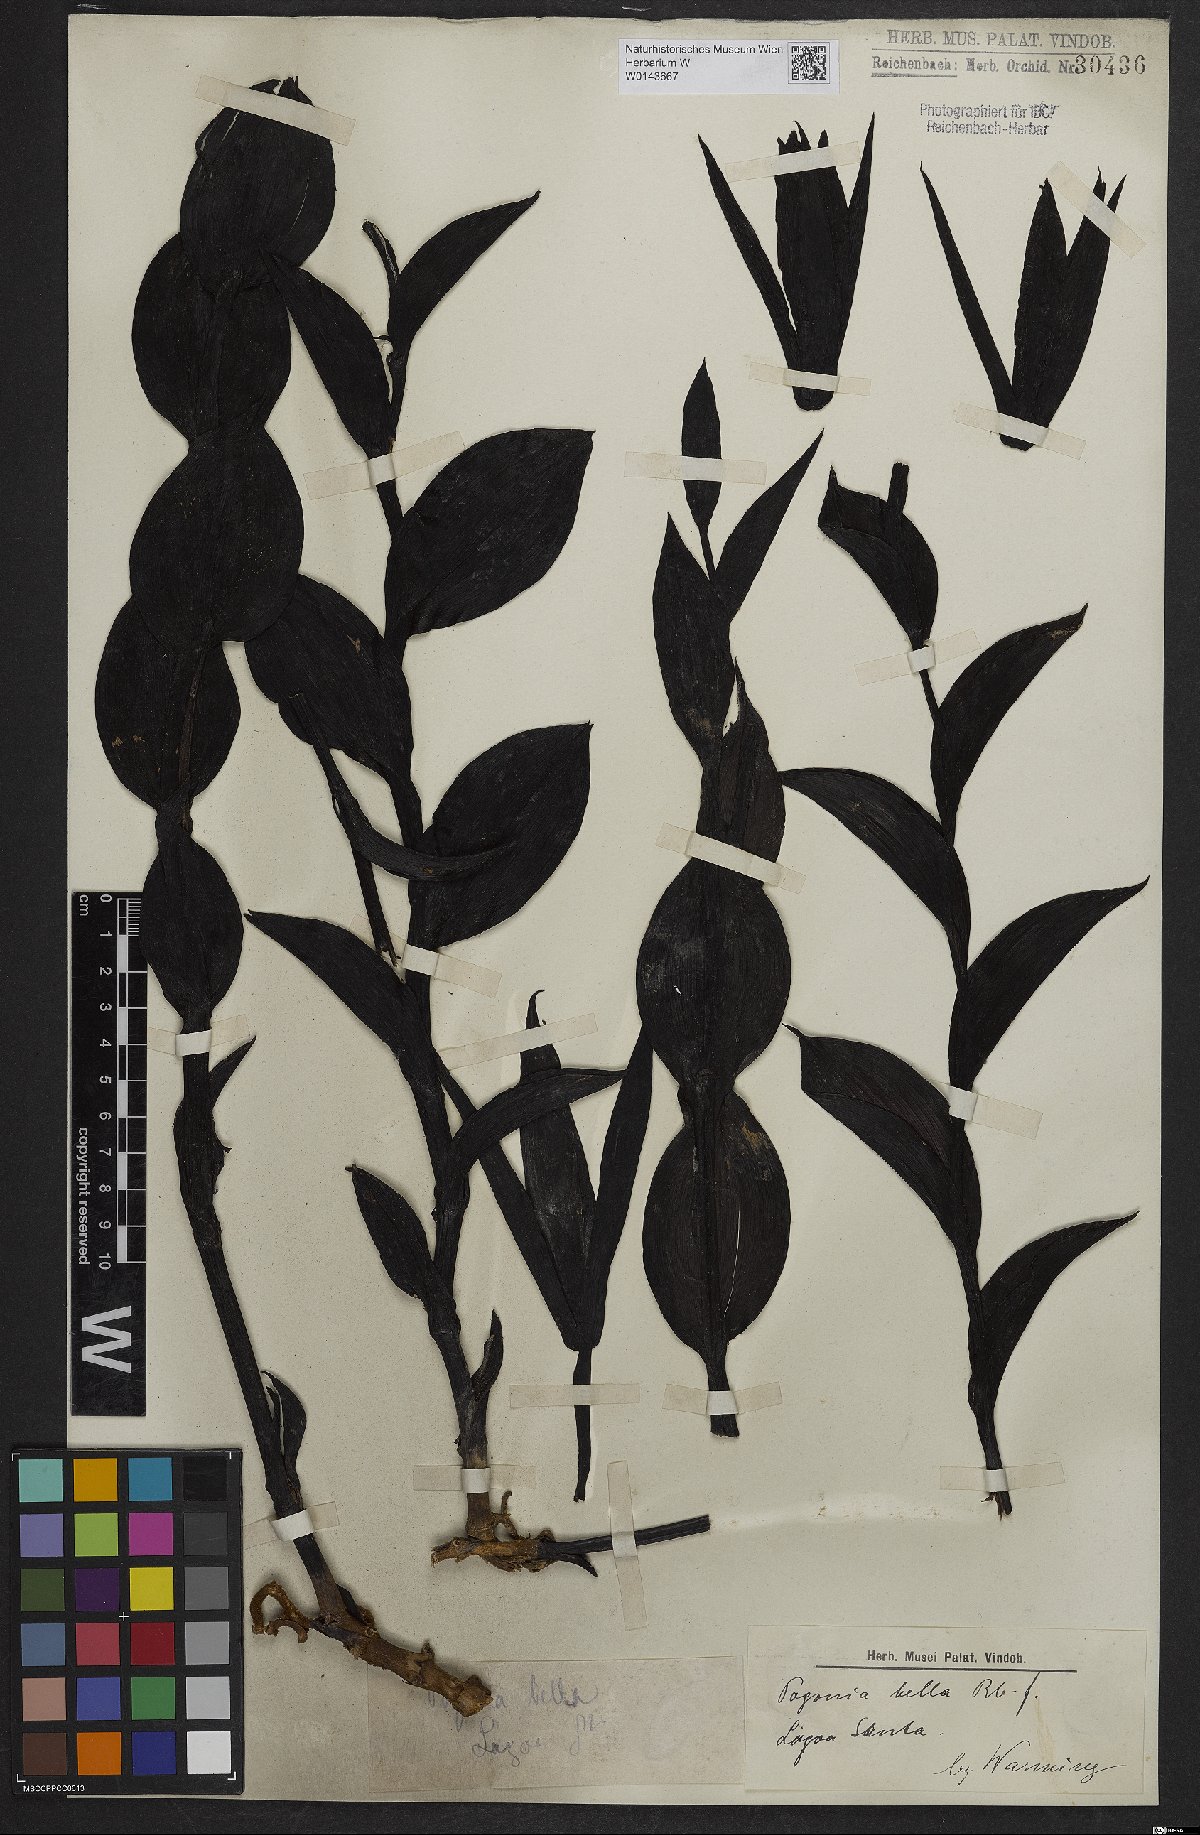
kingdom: Plantae
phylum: Tracheophyta
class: Liliopsida
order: Asparagales
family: Orchidaceae
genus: Cleistes
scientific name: Cleistes bella
